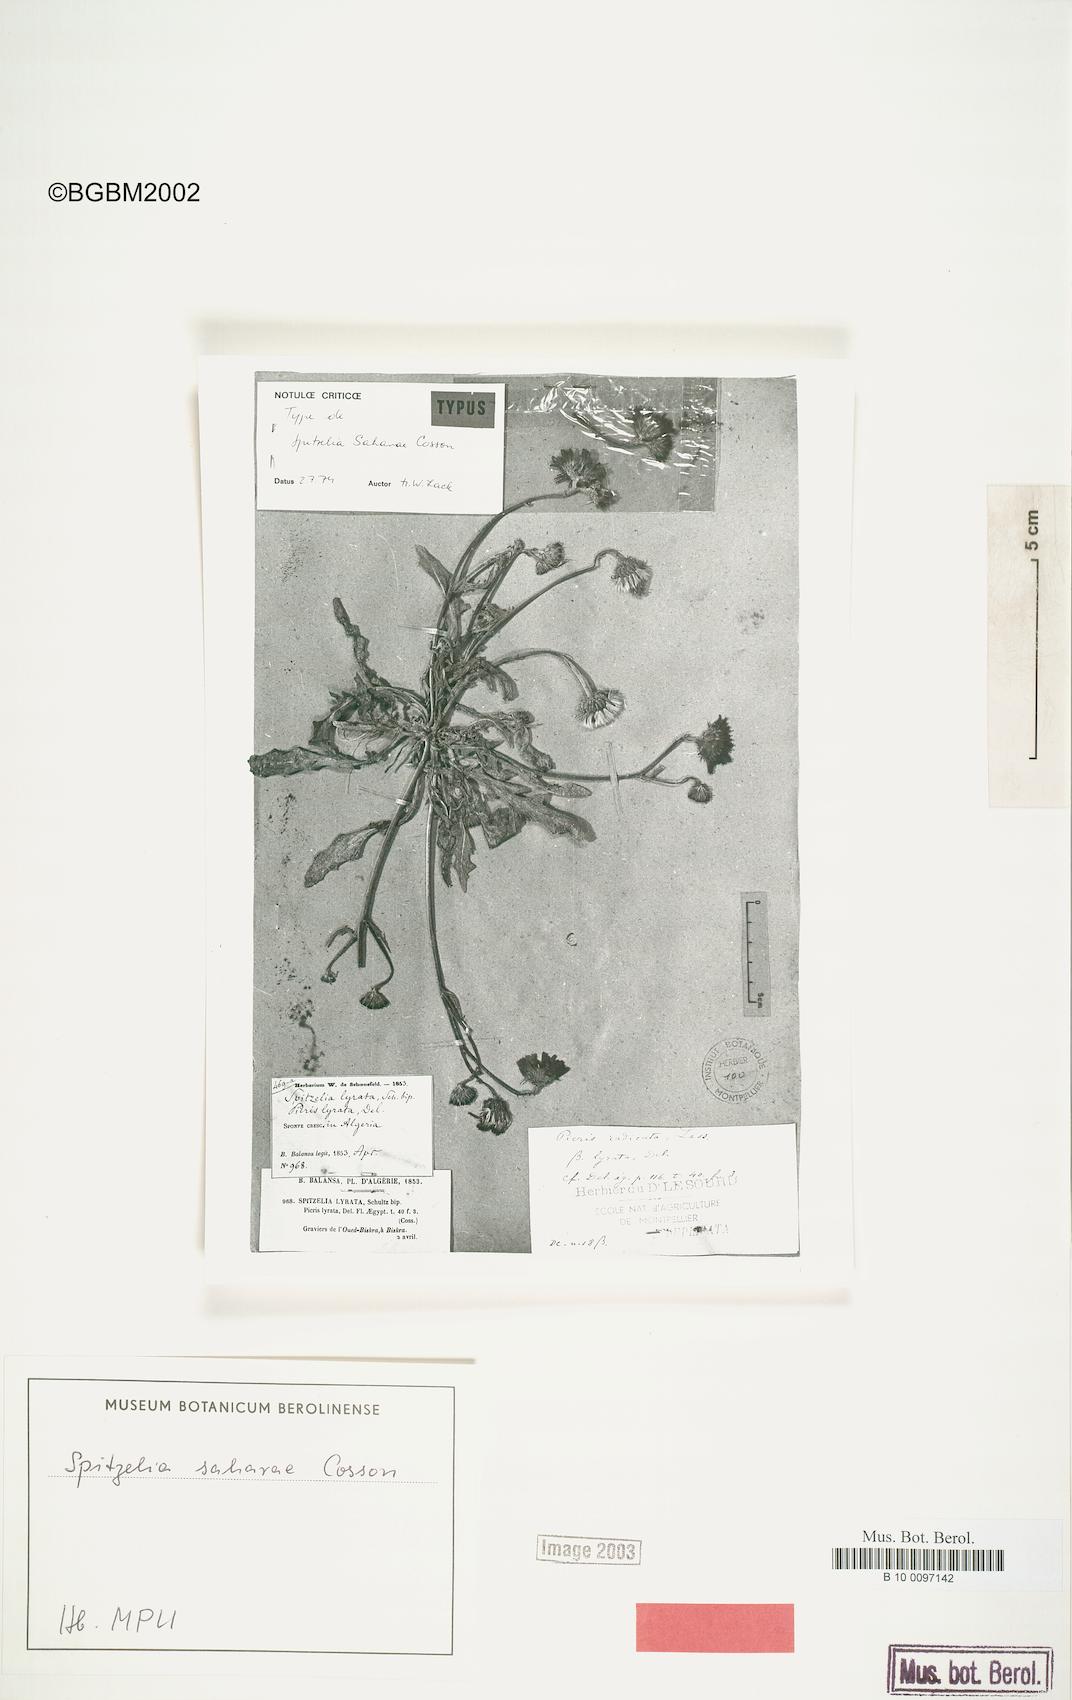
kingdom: Plantae
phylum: Tracheophyta
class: Magnoliopsida
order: Asterales
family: Asteraceae
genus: Picris
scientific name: Picris asplenioides
